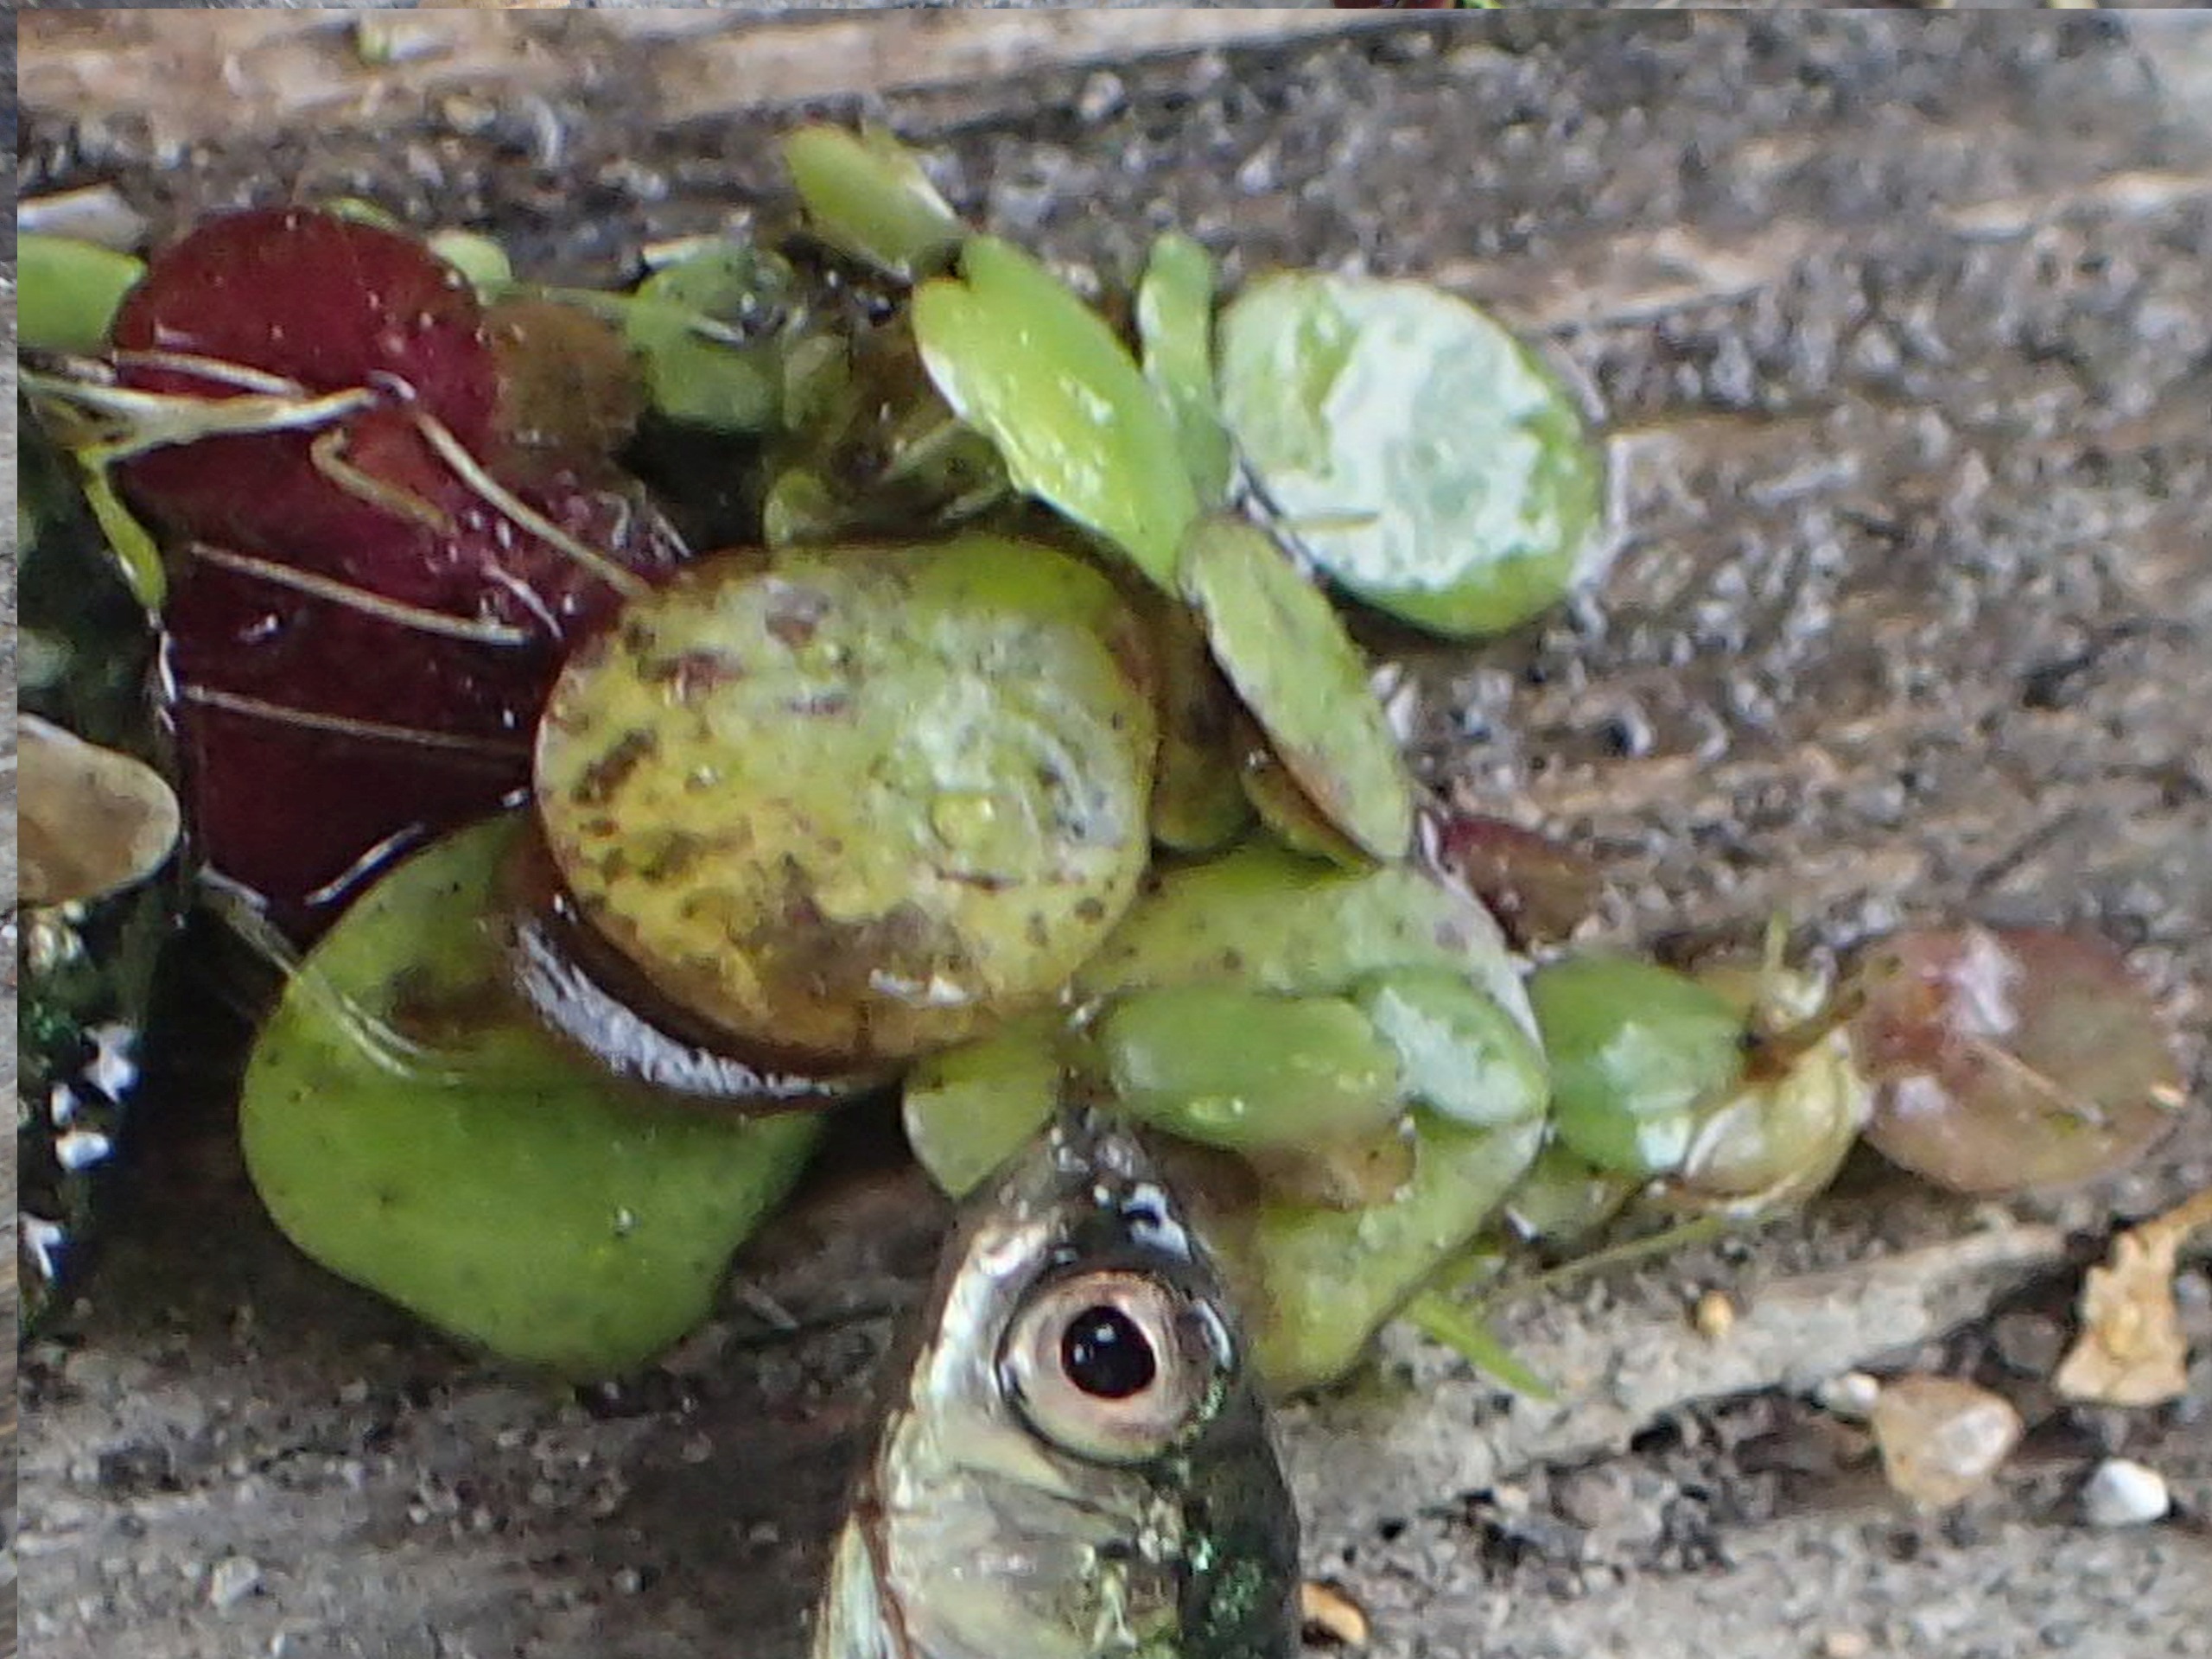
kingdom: Plantae
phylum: Tracheophyta
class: Liliopsida
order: Alismatales
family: Araceae
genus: Spirodela
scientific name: Spirodela polyrhiza
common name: Stor andemad
